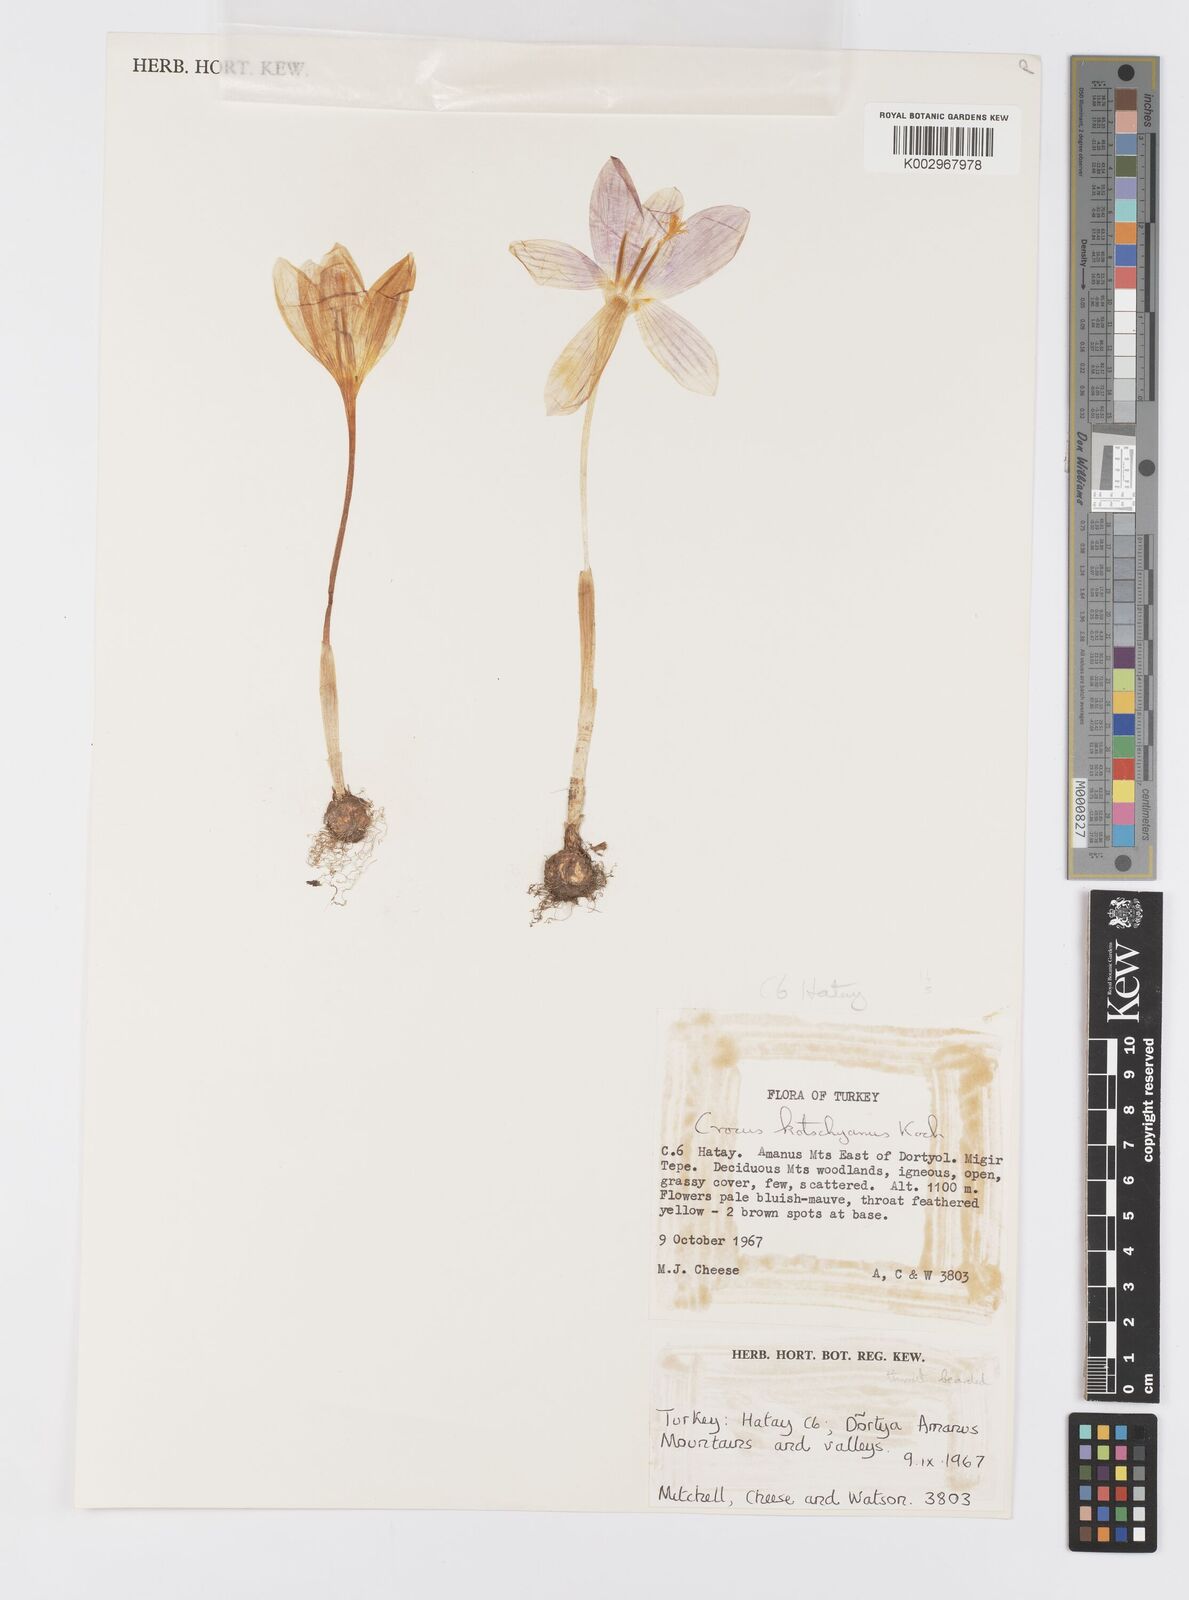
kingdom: Plantae
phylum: Tracheophyta
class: Liliopsida
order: Asparagales
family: Iridaceae
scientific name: Iridaceae
